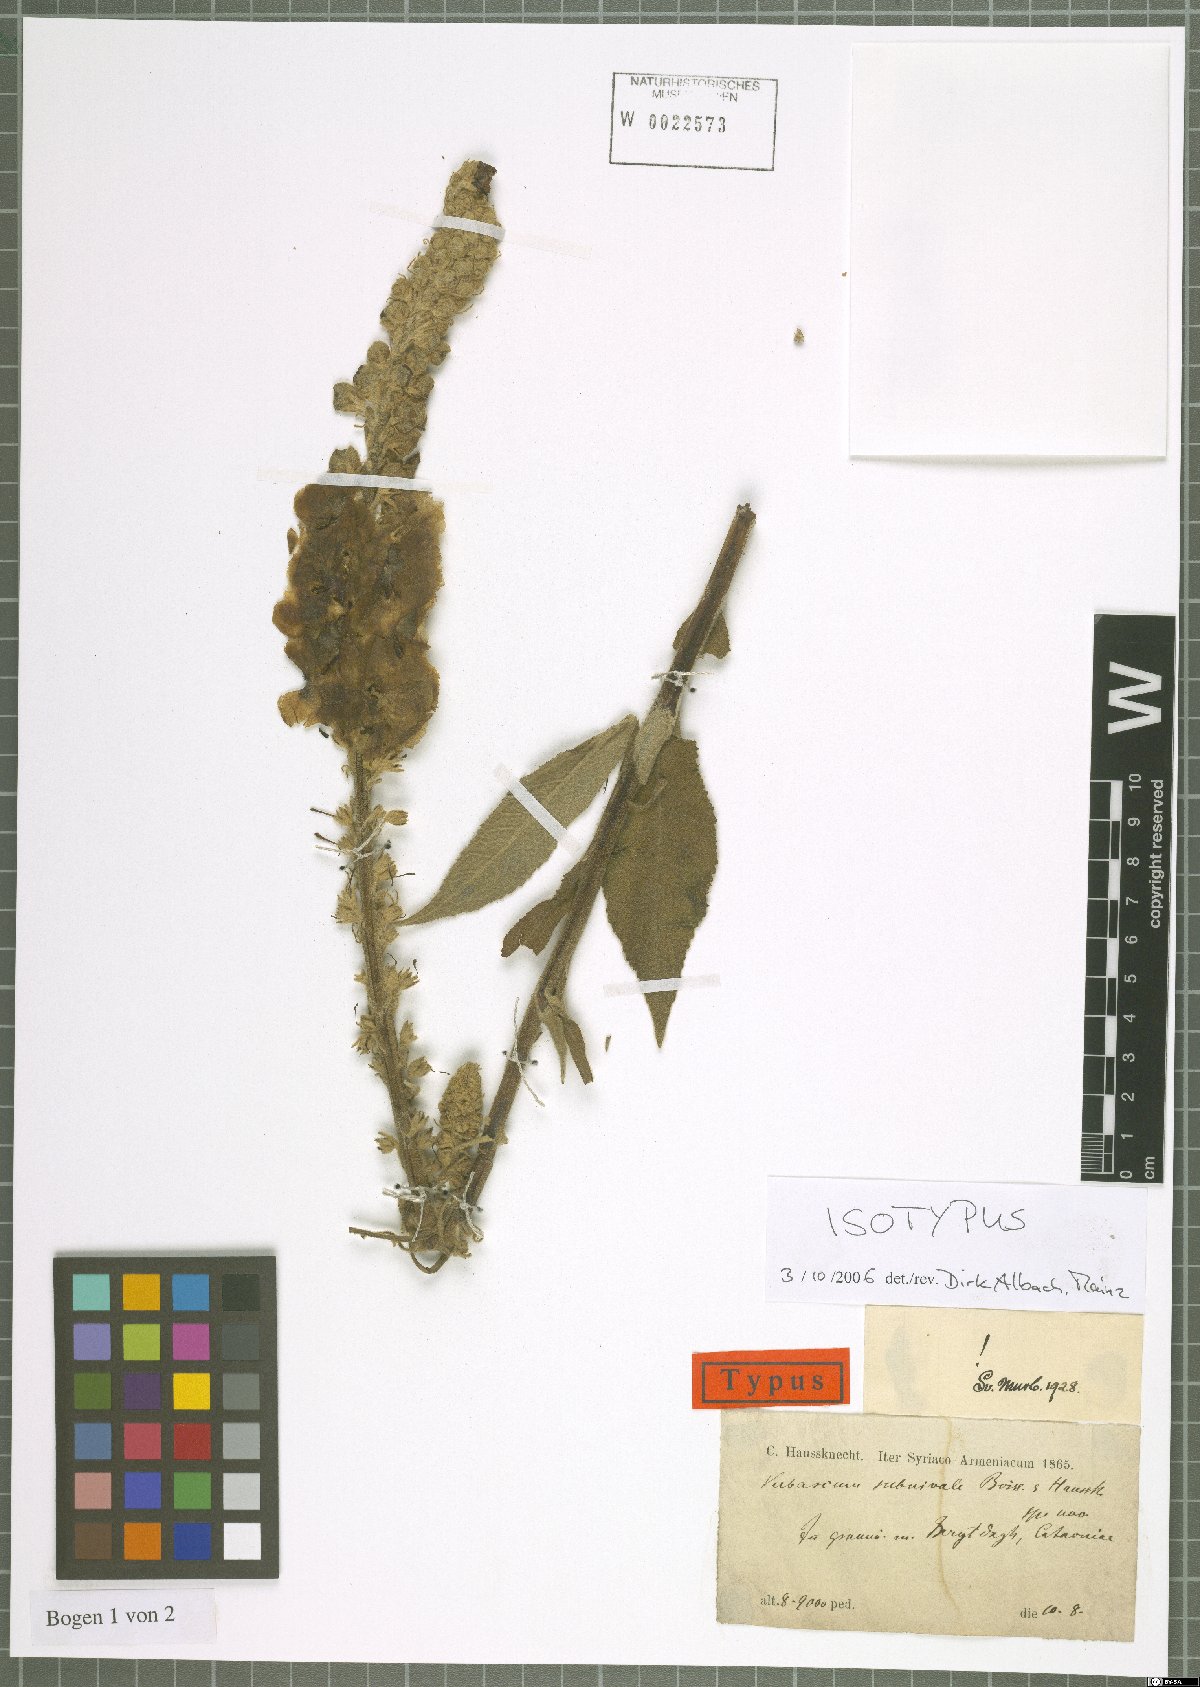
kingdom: Plantae
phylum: Tracheophyta
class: Magnoliopsida
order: Lamiales
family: Scrophulariaceae
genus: Verbascum
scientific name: Verbascum subnivale
